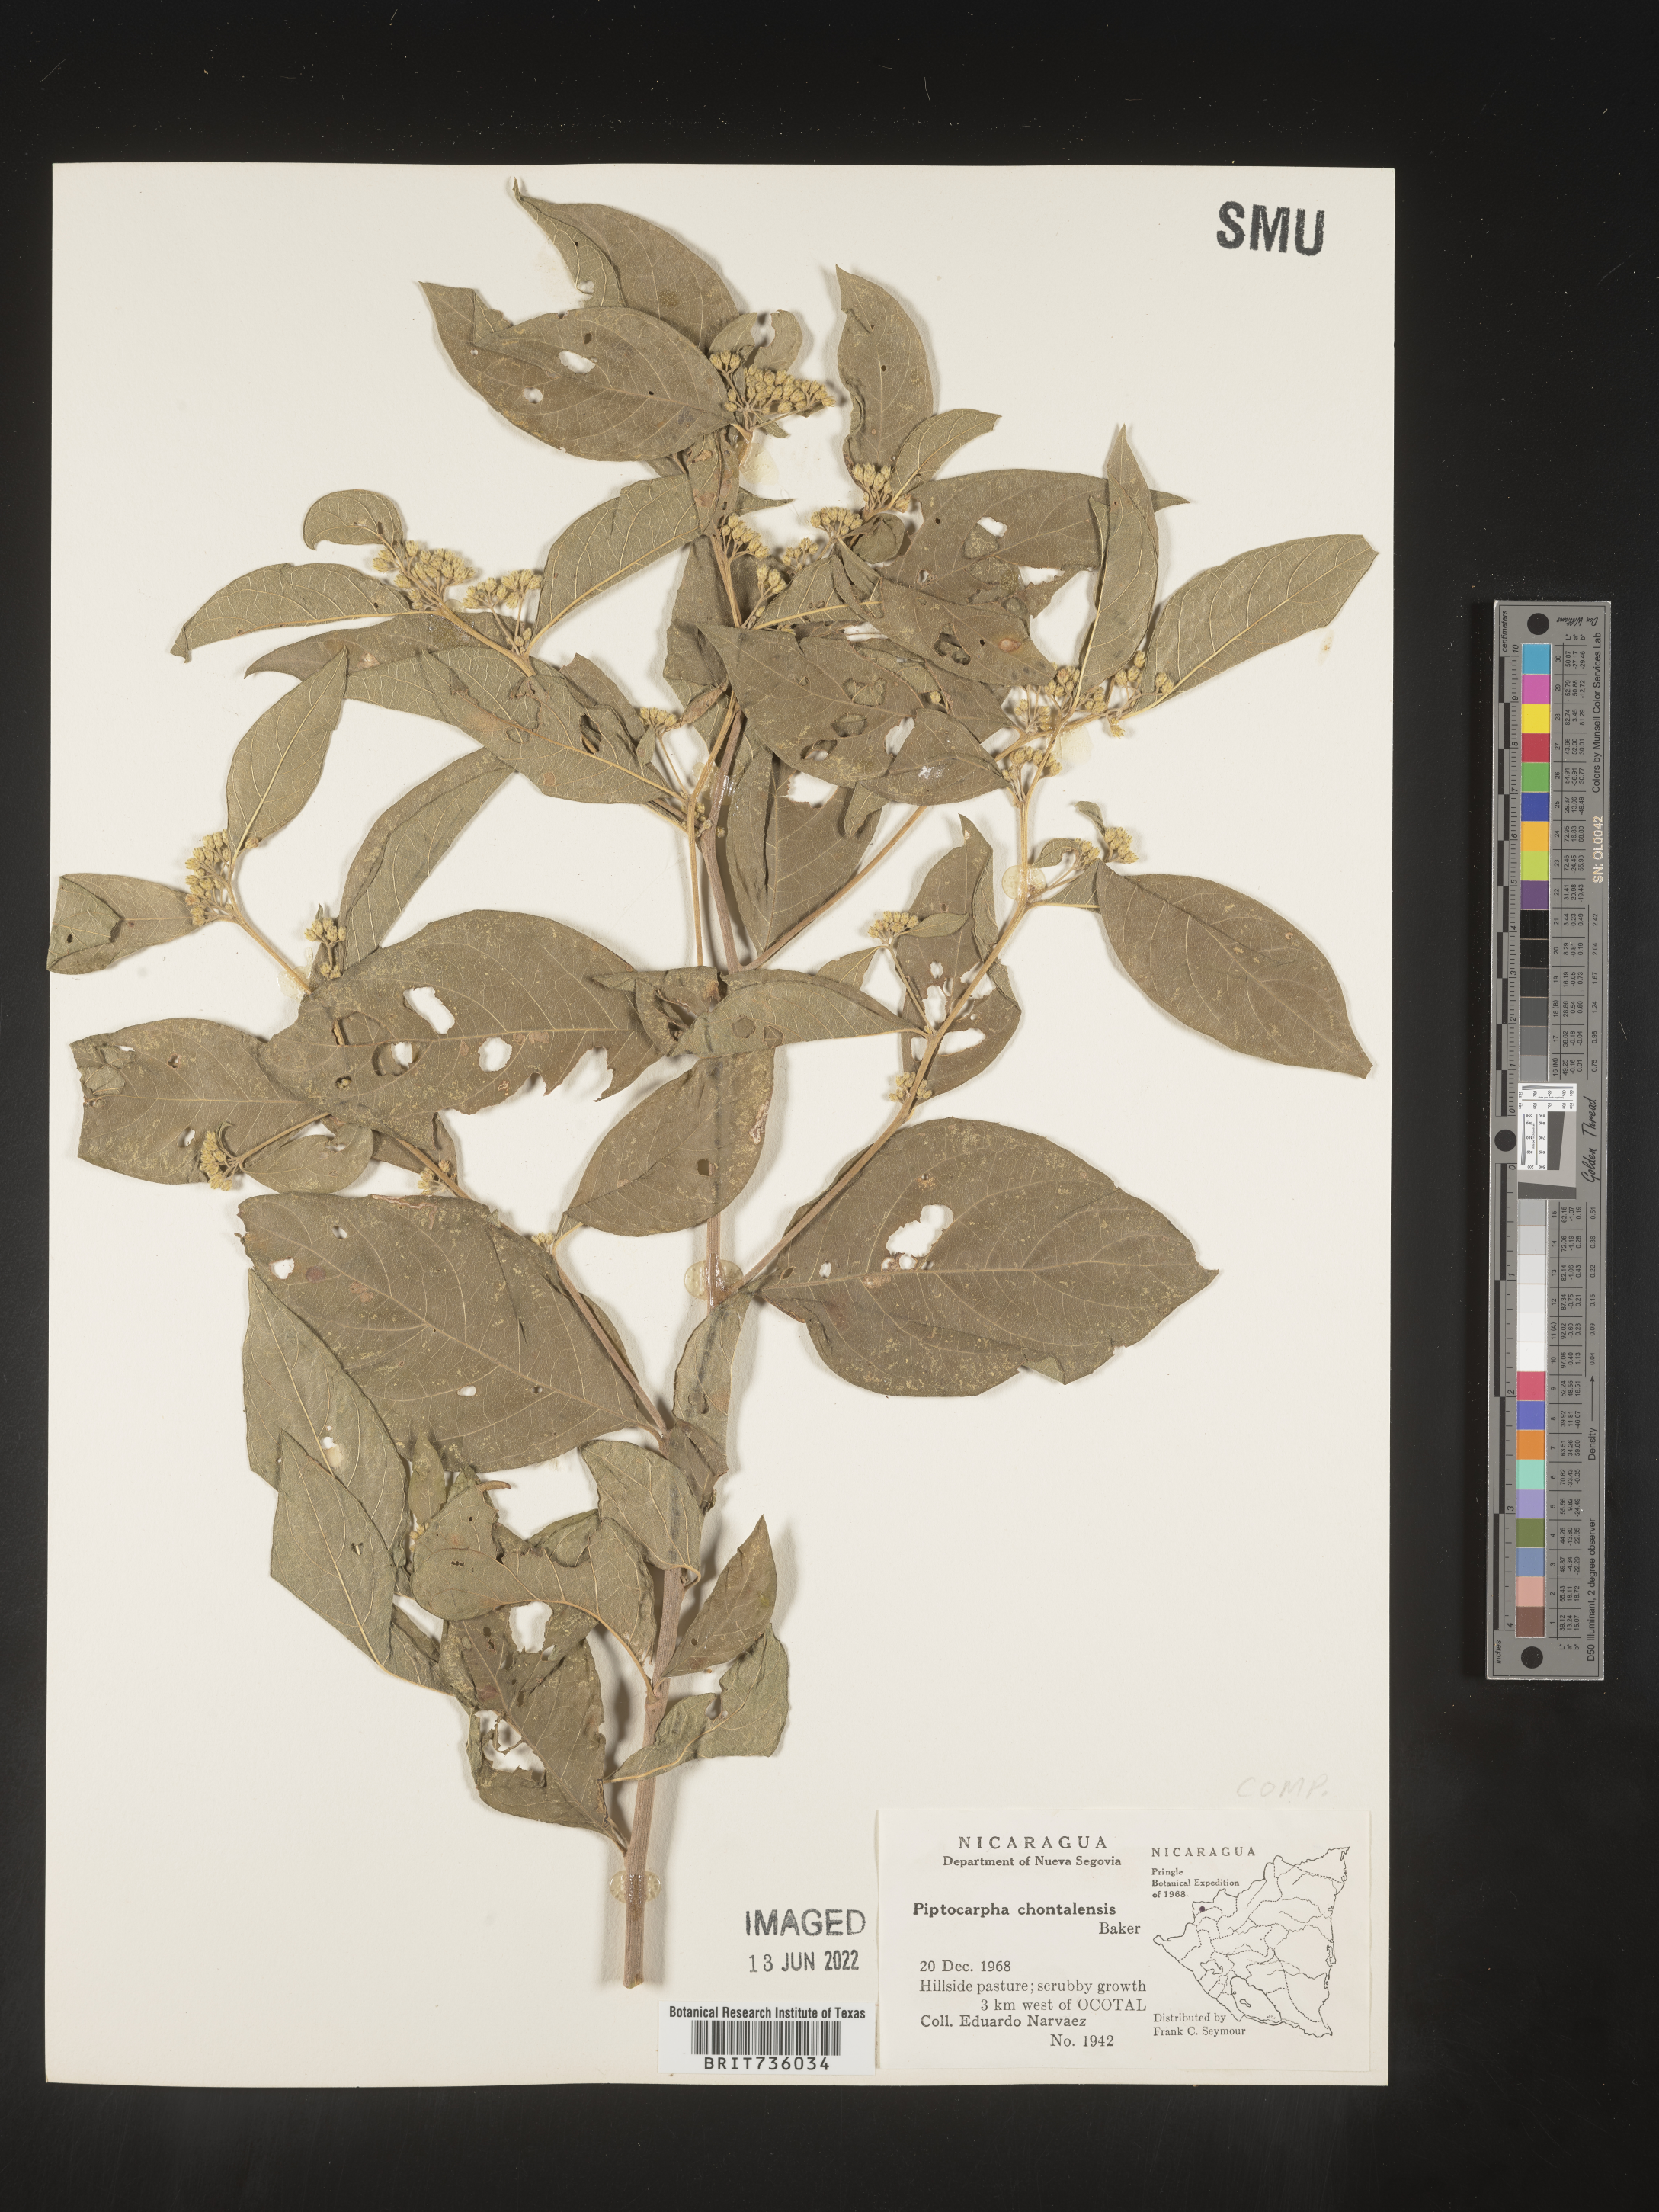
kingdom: Plantae
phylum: Tracheophyta
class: Magnoliopsida
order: Asterales
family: Asteraceae
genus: Piptocarpha
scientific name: Piptocarpha
